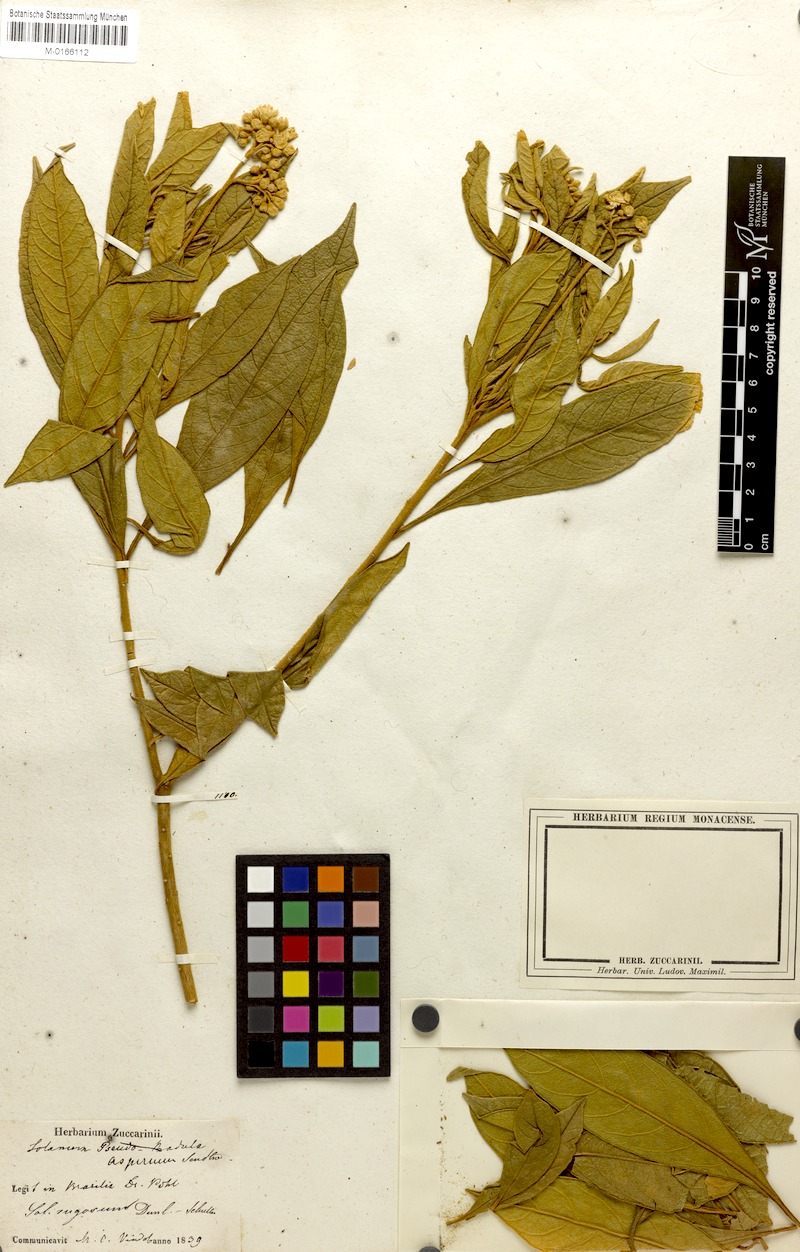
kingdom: Plantae
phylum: Tracheophyta
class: Magnoliopsida
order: Solanales
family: Solanaceae
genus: Solanum
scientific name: Solanum rugosum
